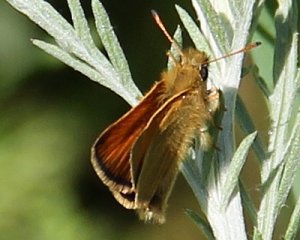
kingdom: Animalia
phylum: Arthropoda
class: Insecta
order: Lepidoptera
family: Hesperiidae
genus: Thymelicus
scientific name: Thymelicus lineola
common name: European Skipper
